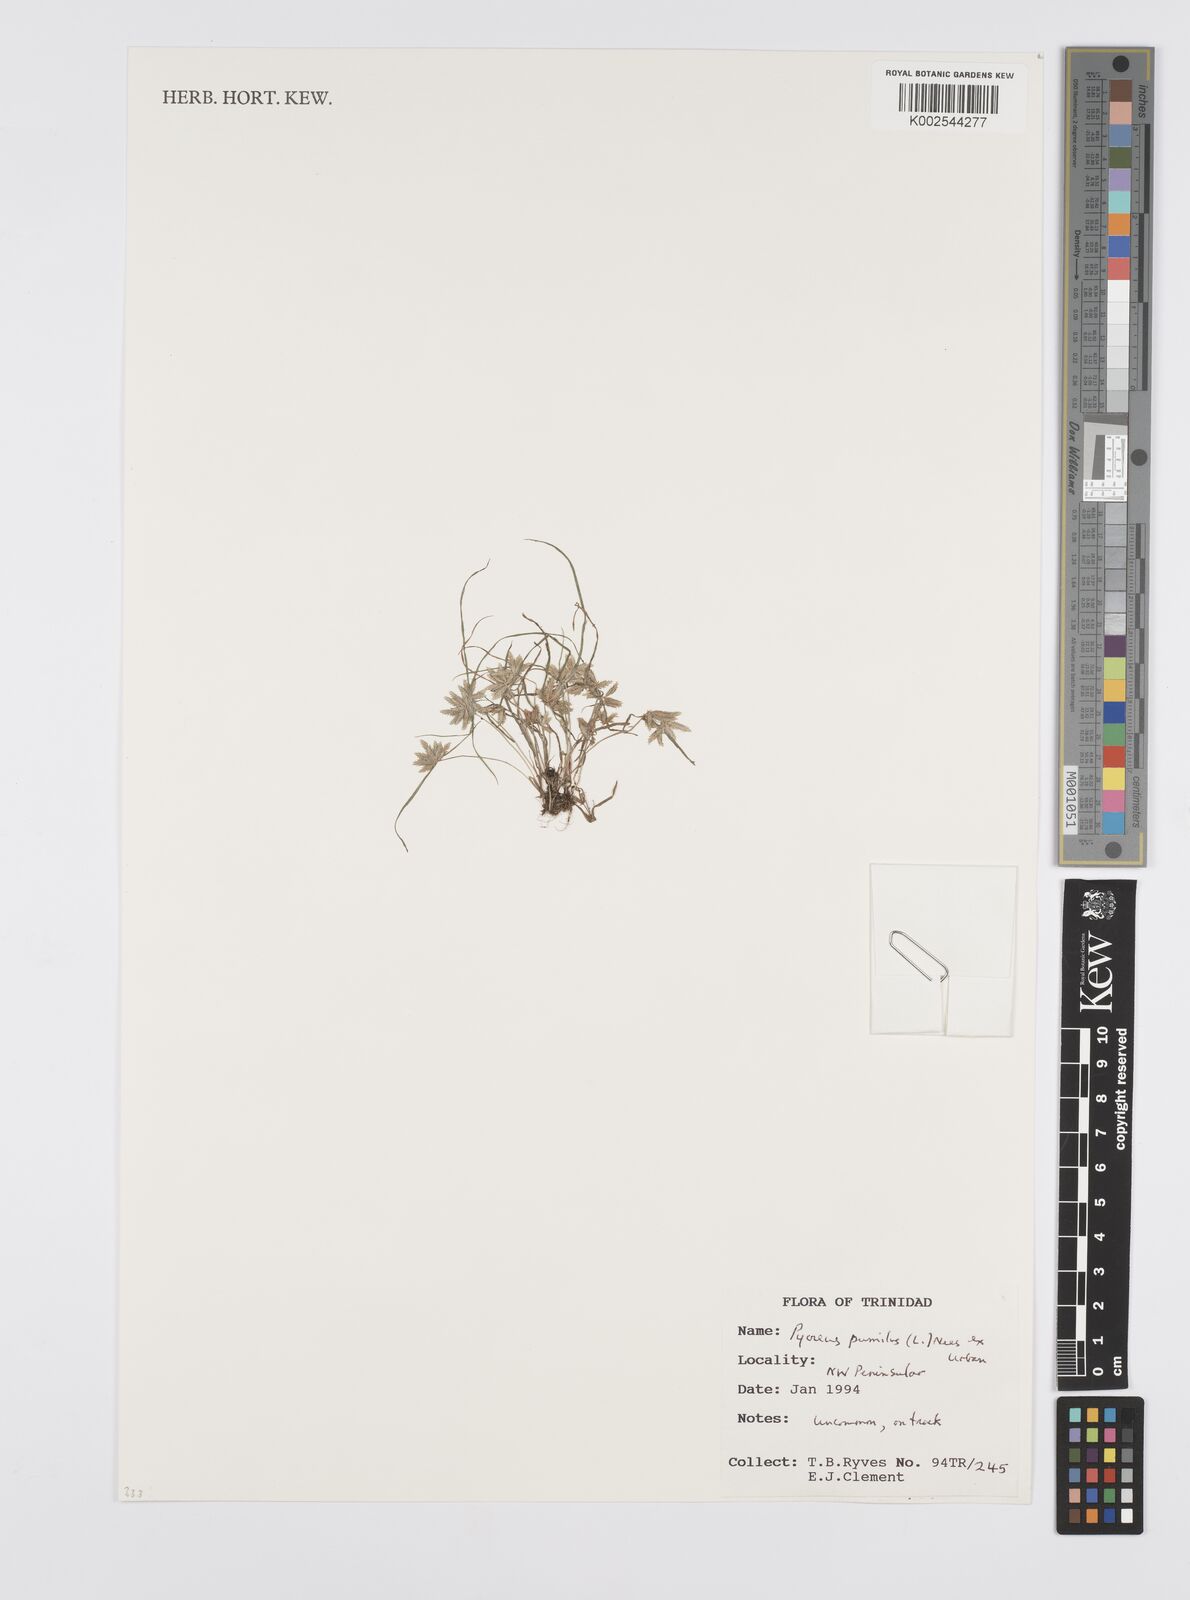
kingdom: Plantae
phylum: Tracheophyta
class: Liliopsida
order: Poales
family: Cyperaceae
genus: Cyperus
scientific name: Cyperus pumilus
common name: Low flatsedge
